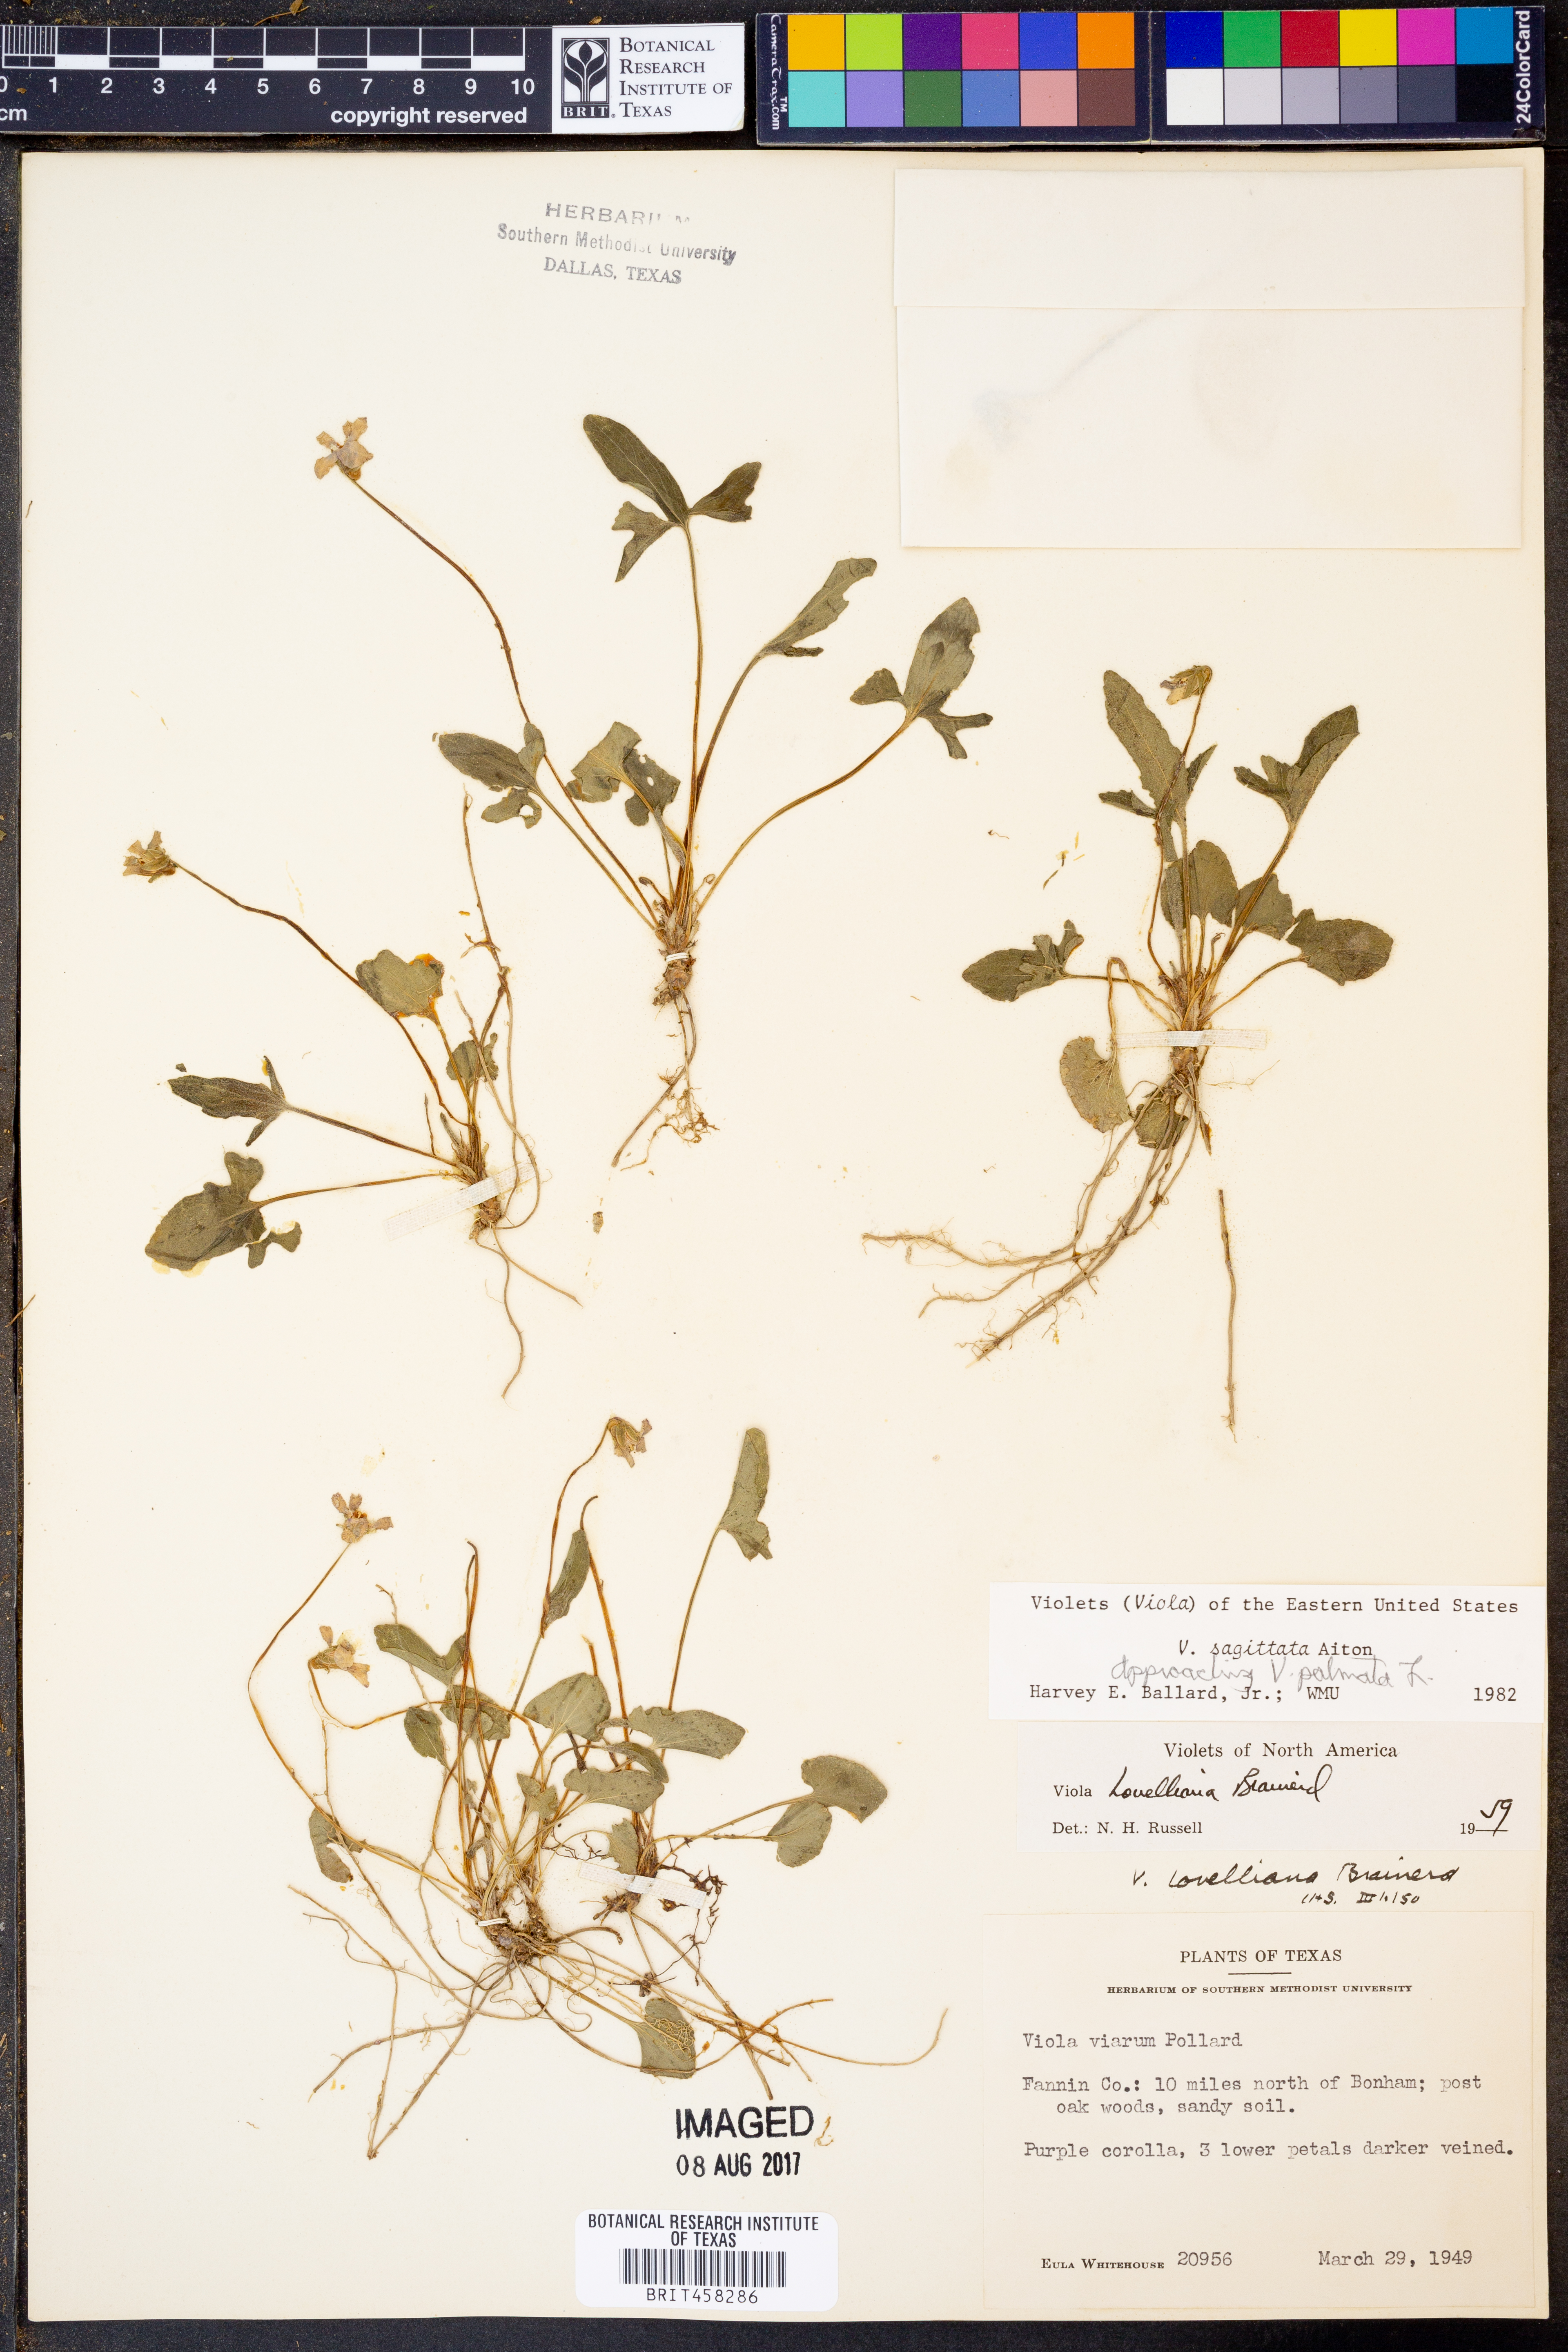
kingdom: Plantae
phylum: Tracheophyta
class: Magnoliopsida
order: Malpighiales
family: Violaceae
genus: Viola
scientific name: Viola sagittata
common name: Arrowhead violet
